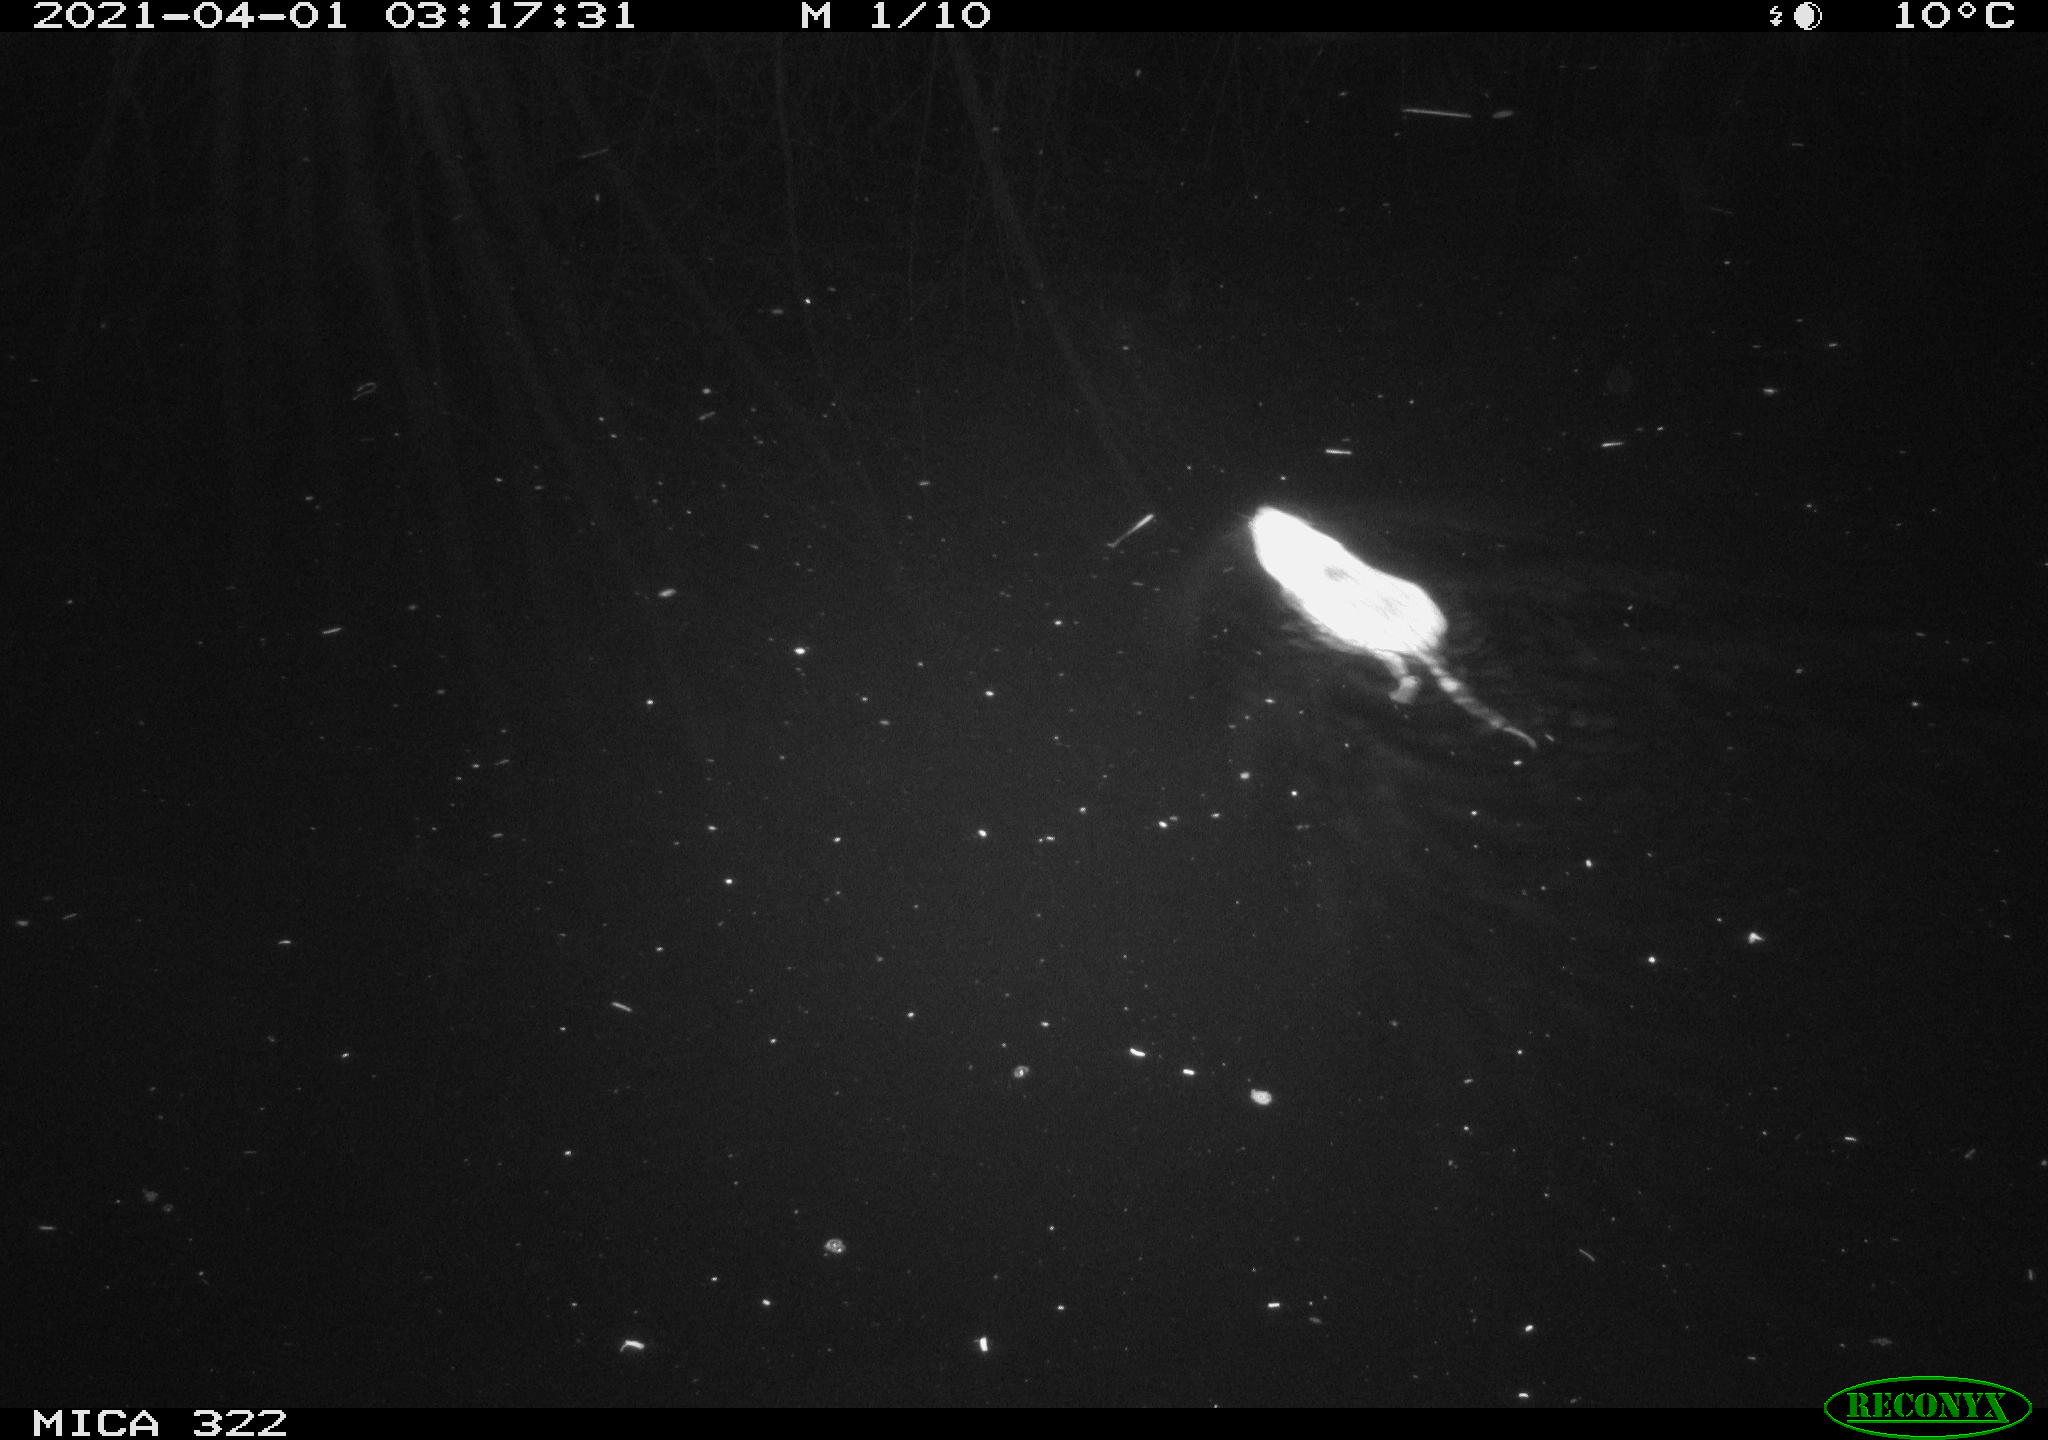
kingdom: Animalia
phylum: Chordata
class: Mammalia
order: Rodentia
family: Muridae
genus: Rattus
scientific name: Rattus norvegicus
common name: Brown rat
